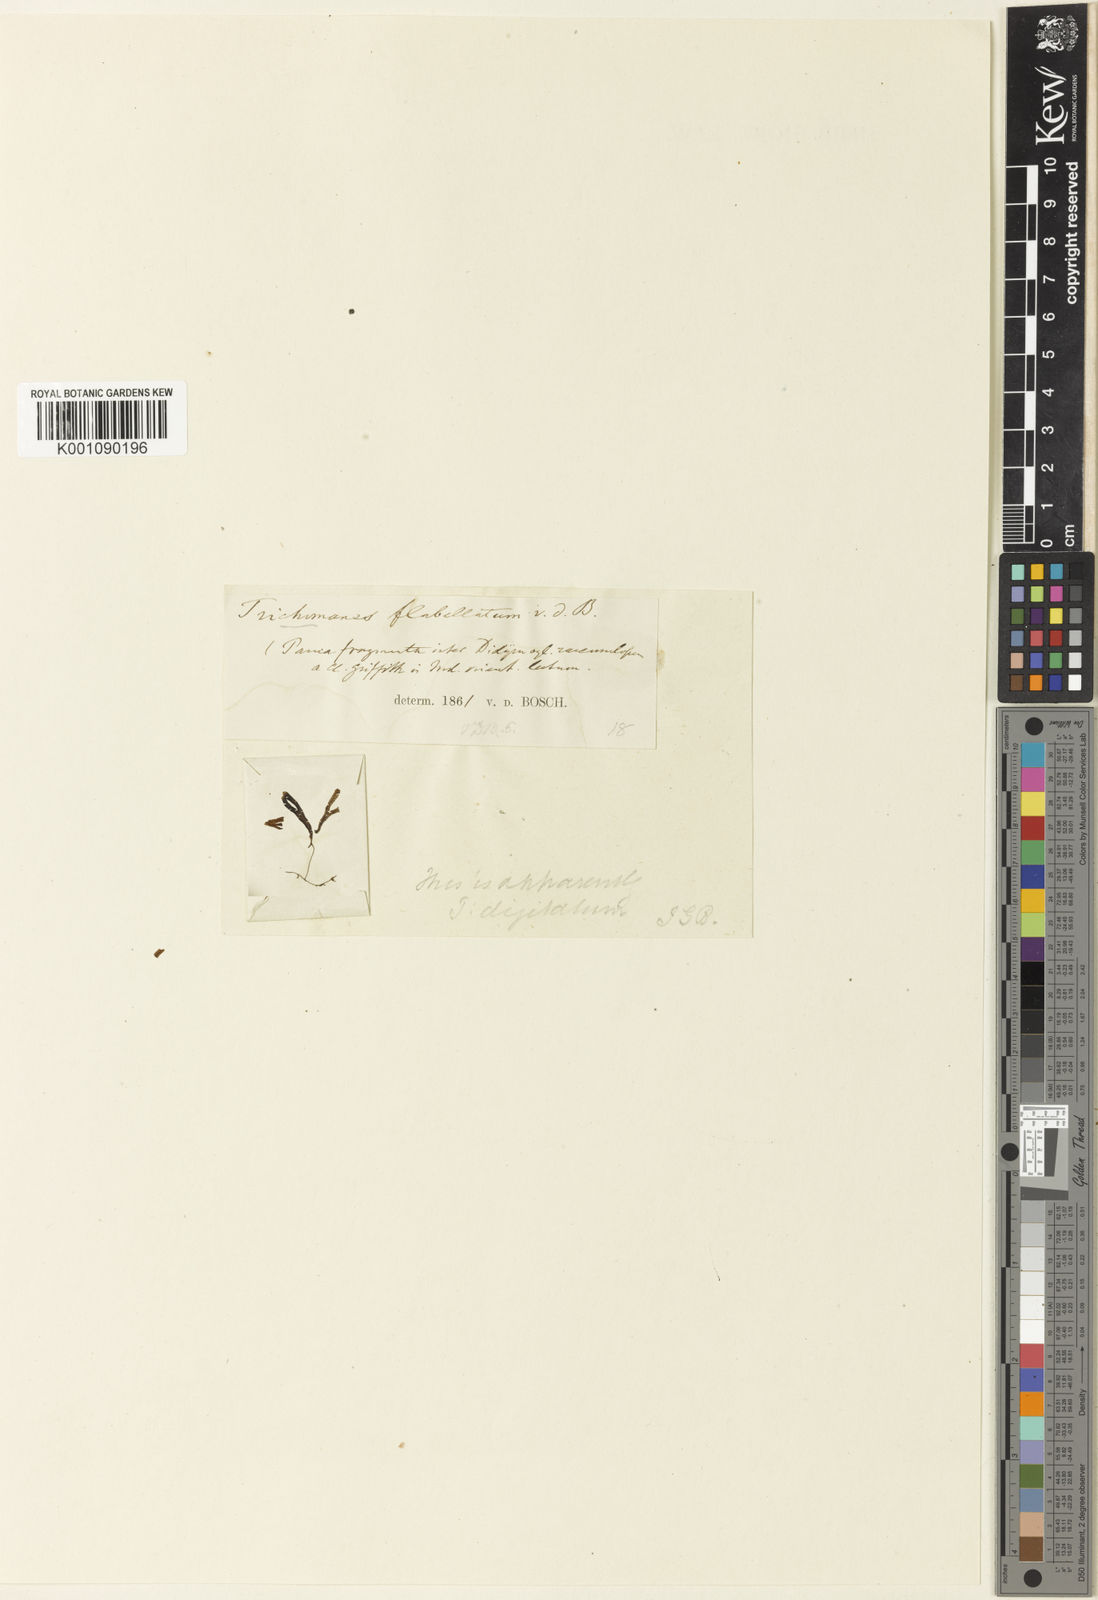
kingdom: Plantae
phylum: Tracheophyta
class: Polypodiopsida
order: Hymenophyllales
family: Hymenophyllaceae
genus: Hymenophyllum
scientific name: Hymenophyllum digitatum
